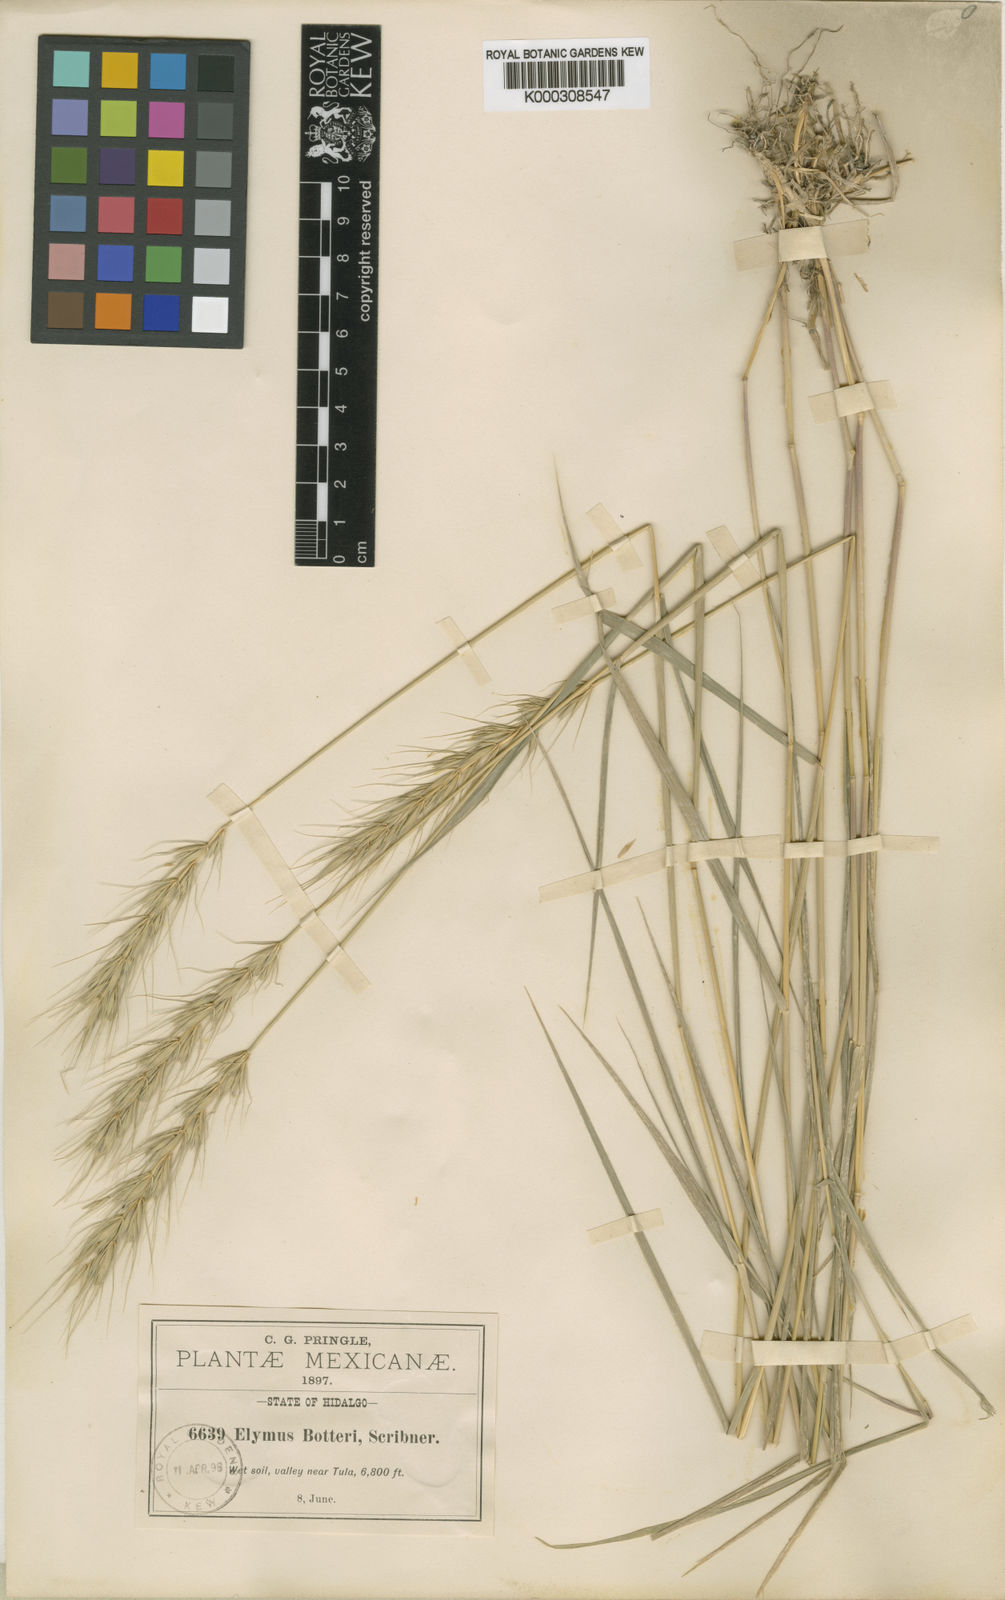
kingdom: Plantae
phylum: Tracheophyta
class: Liliopsida
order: Poales
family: Poaceae
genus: Elymus
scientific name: Elymus violaceus
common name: Arctic wheatgrass
